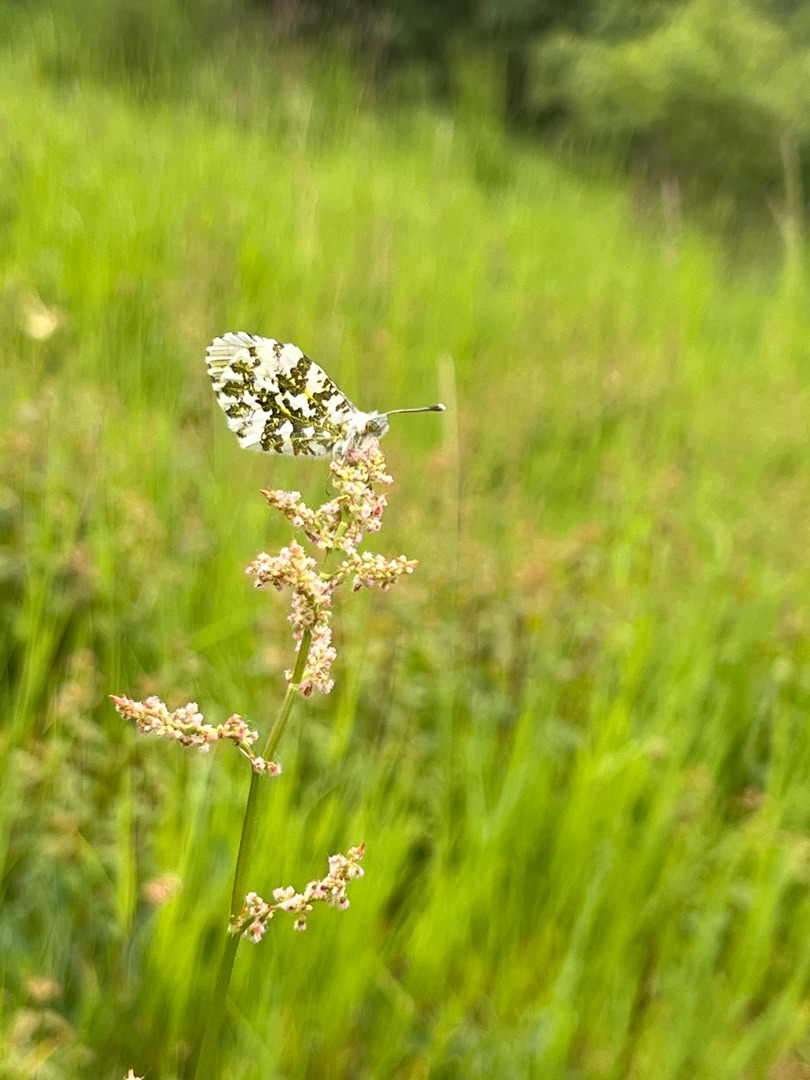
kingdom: Animalia
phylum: Arthropoda
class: Insecta
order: Lepidoptera
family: Pieridae
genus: Anthocharis
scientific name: Anthocharis cardamines
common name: Aurora
